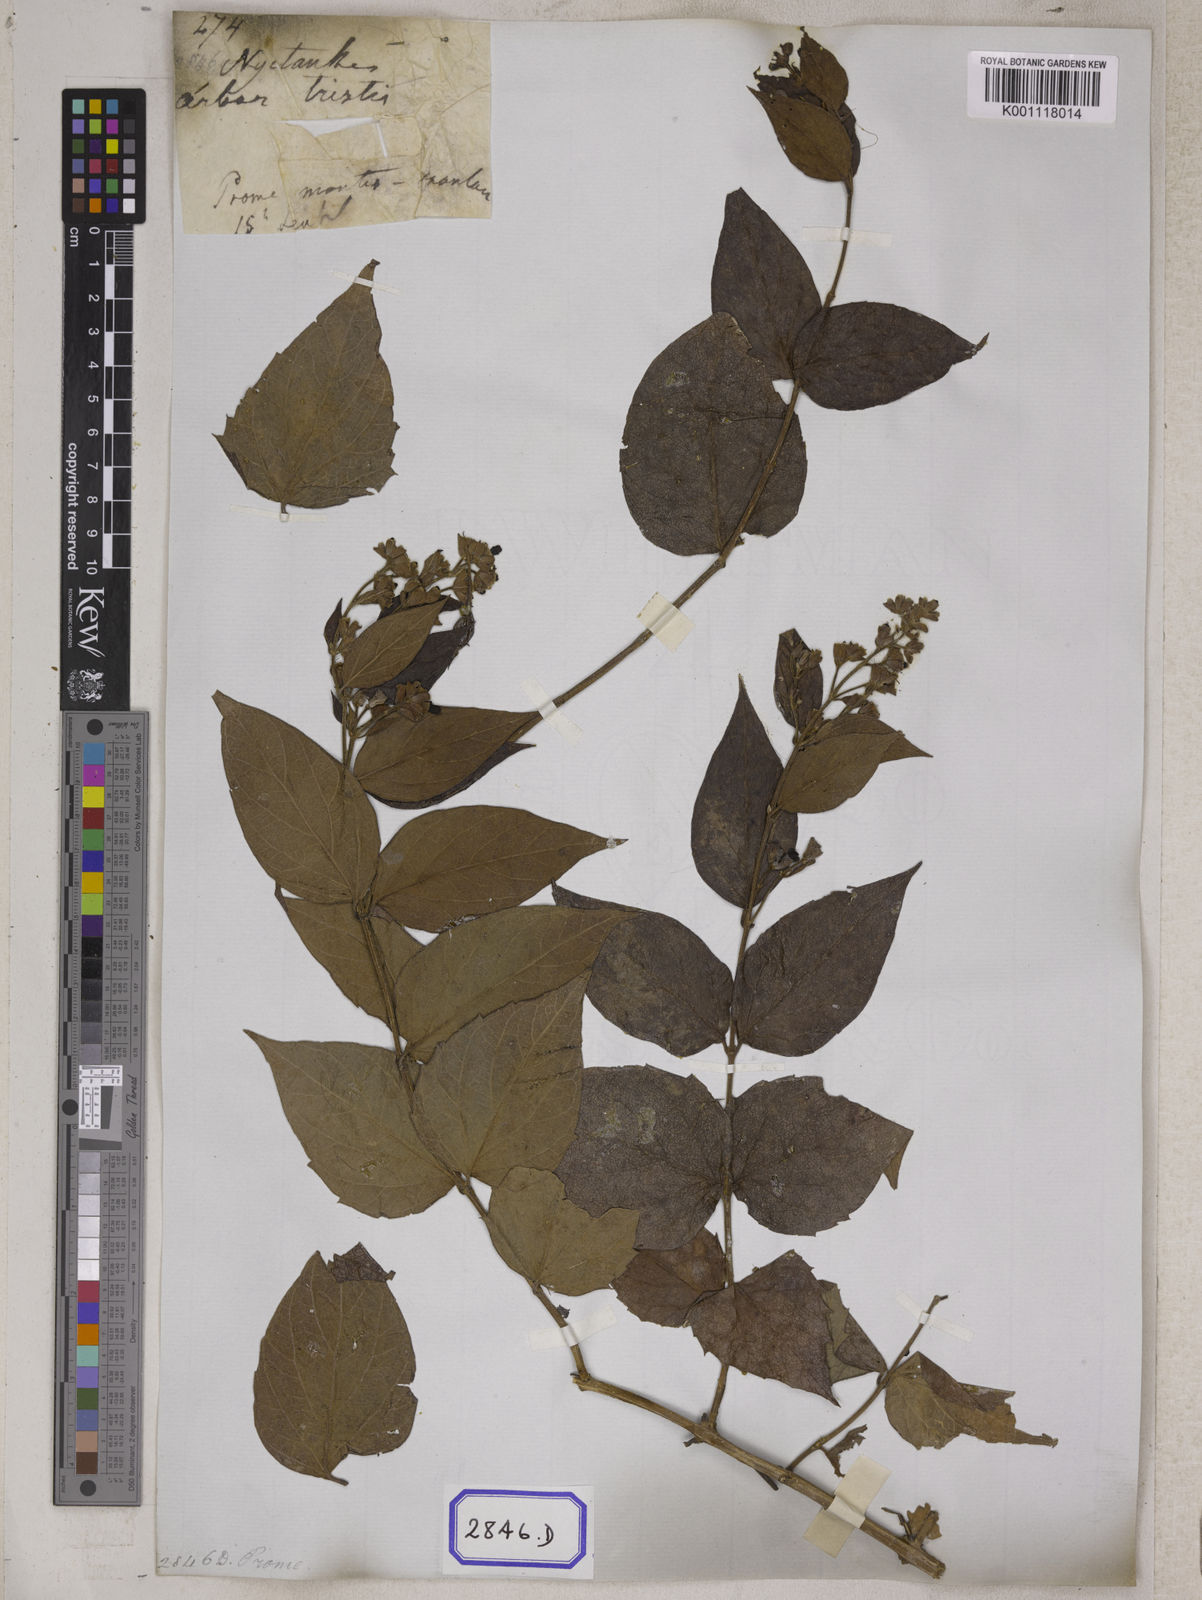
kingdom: Plantae
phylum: Tracheophyta
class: Magnoliopsida
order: Lamiales
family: Oleaceae
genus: Nyctanthes
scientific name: Nyctanthes arbor-tristis
